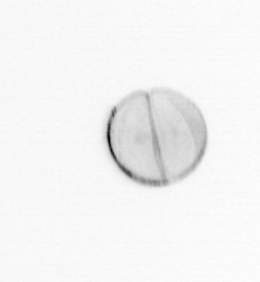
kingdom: Chromista
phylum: Ochrophyta
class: Bacillariophyceae
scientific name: Bacillariophyceae
